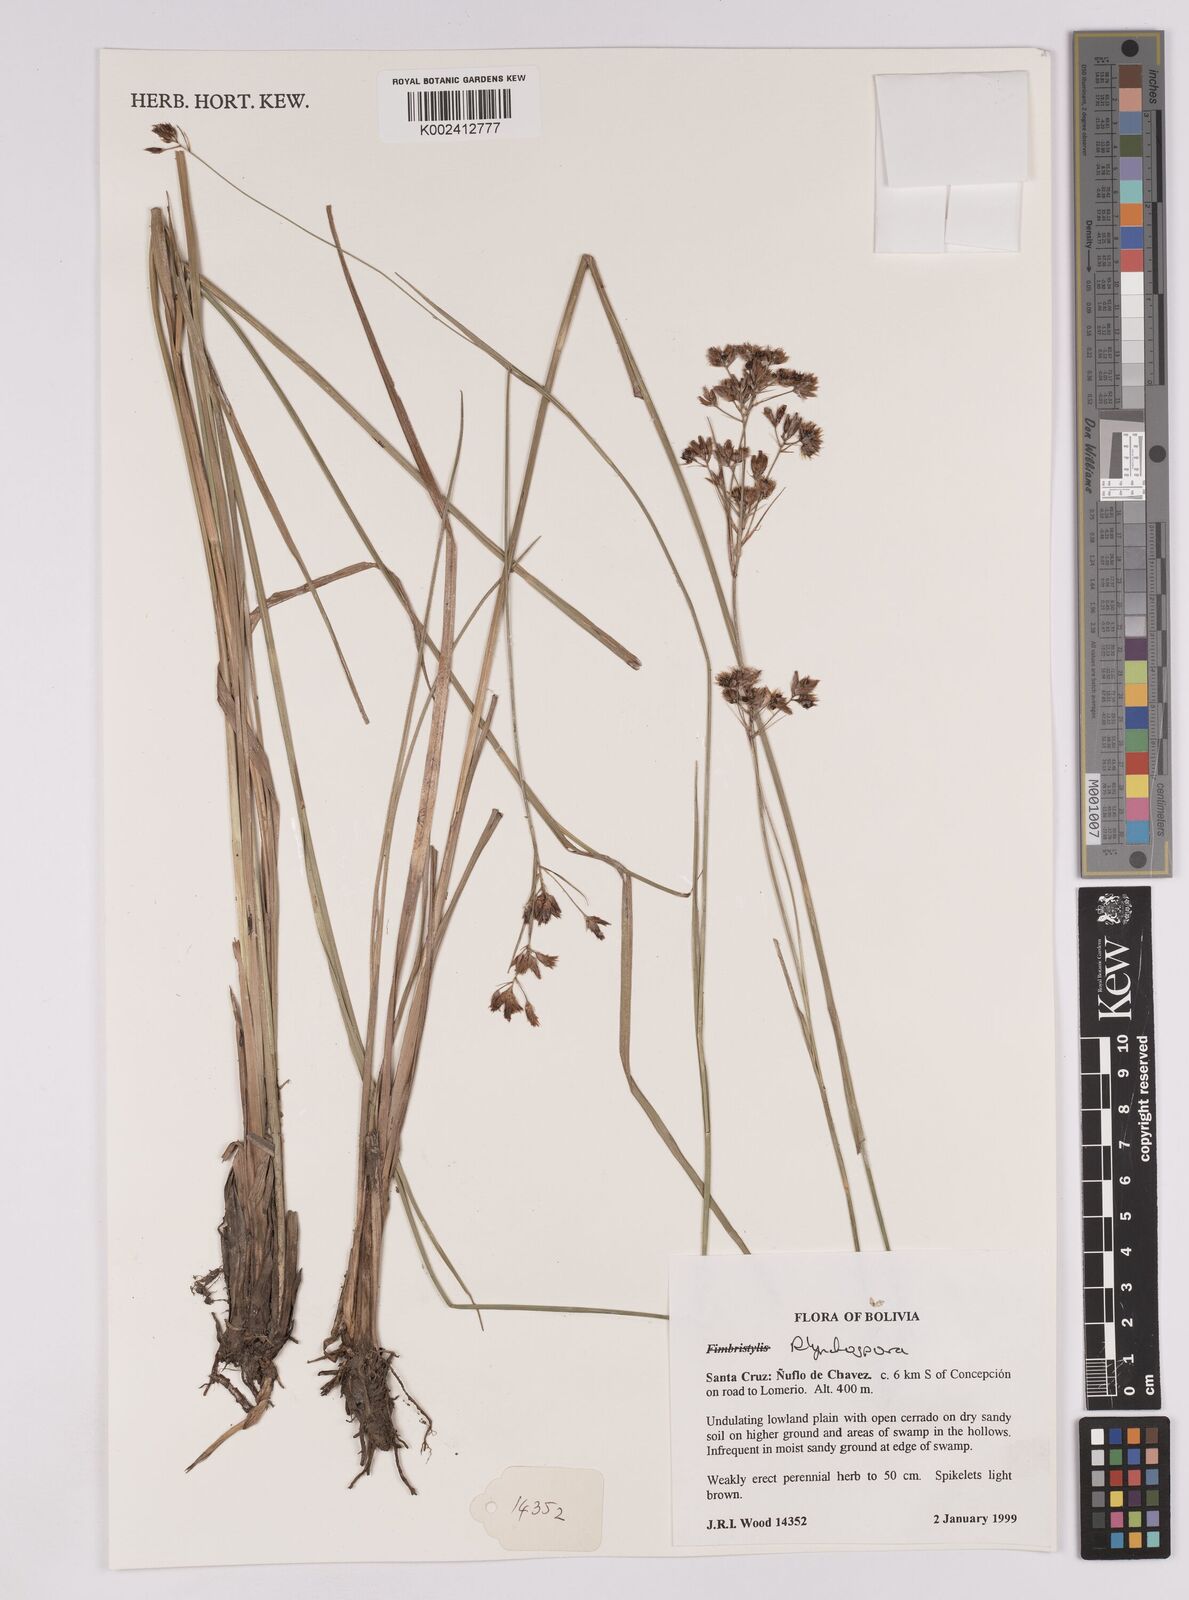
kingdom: Plantae
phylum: Tracheophyta
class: Liliopsida
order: Poales
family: Cyperaceae
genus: Rhynchospora
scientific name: Rhynchospora
